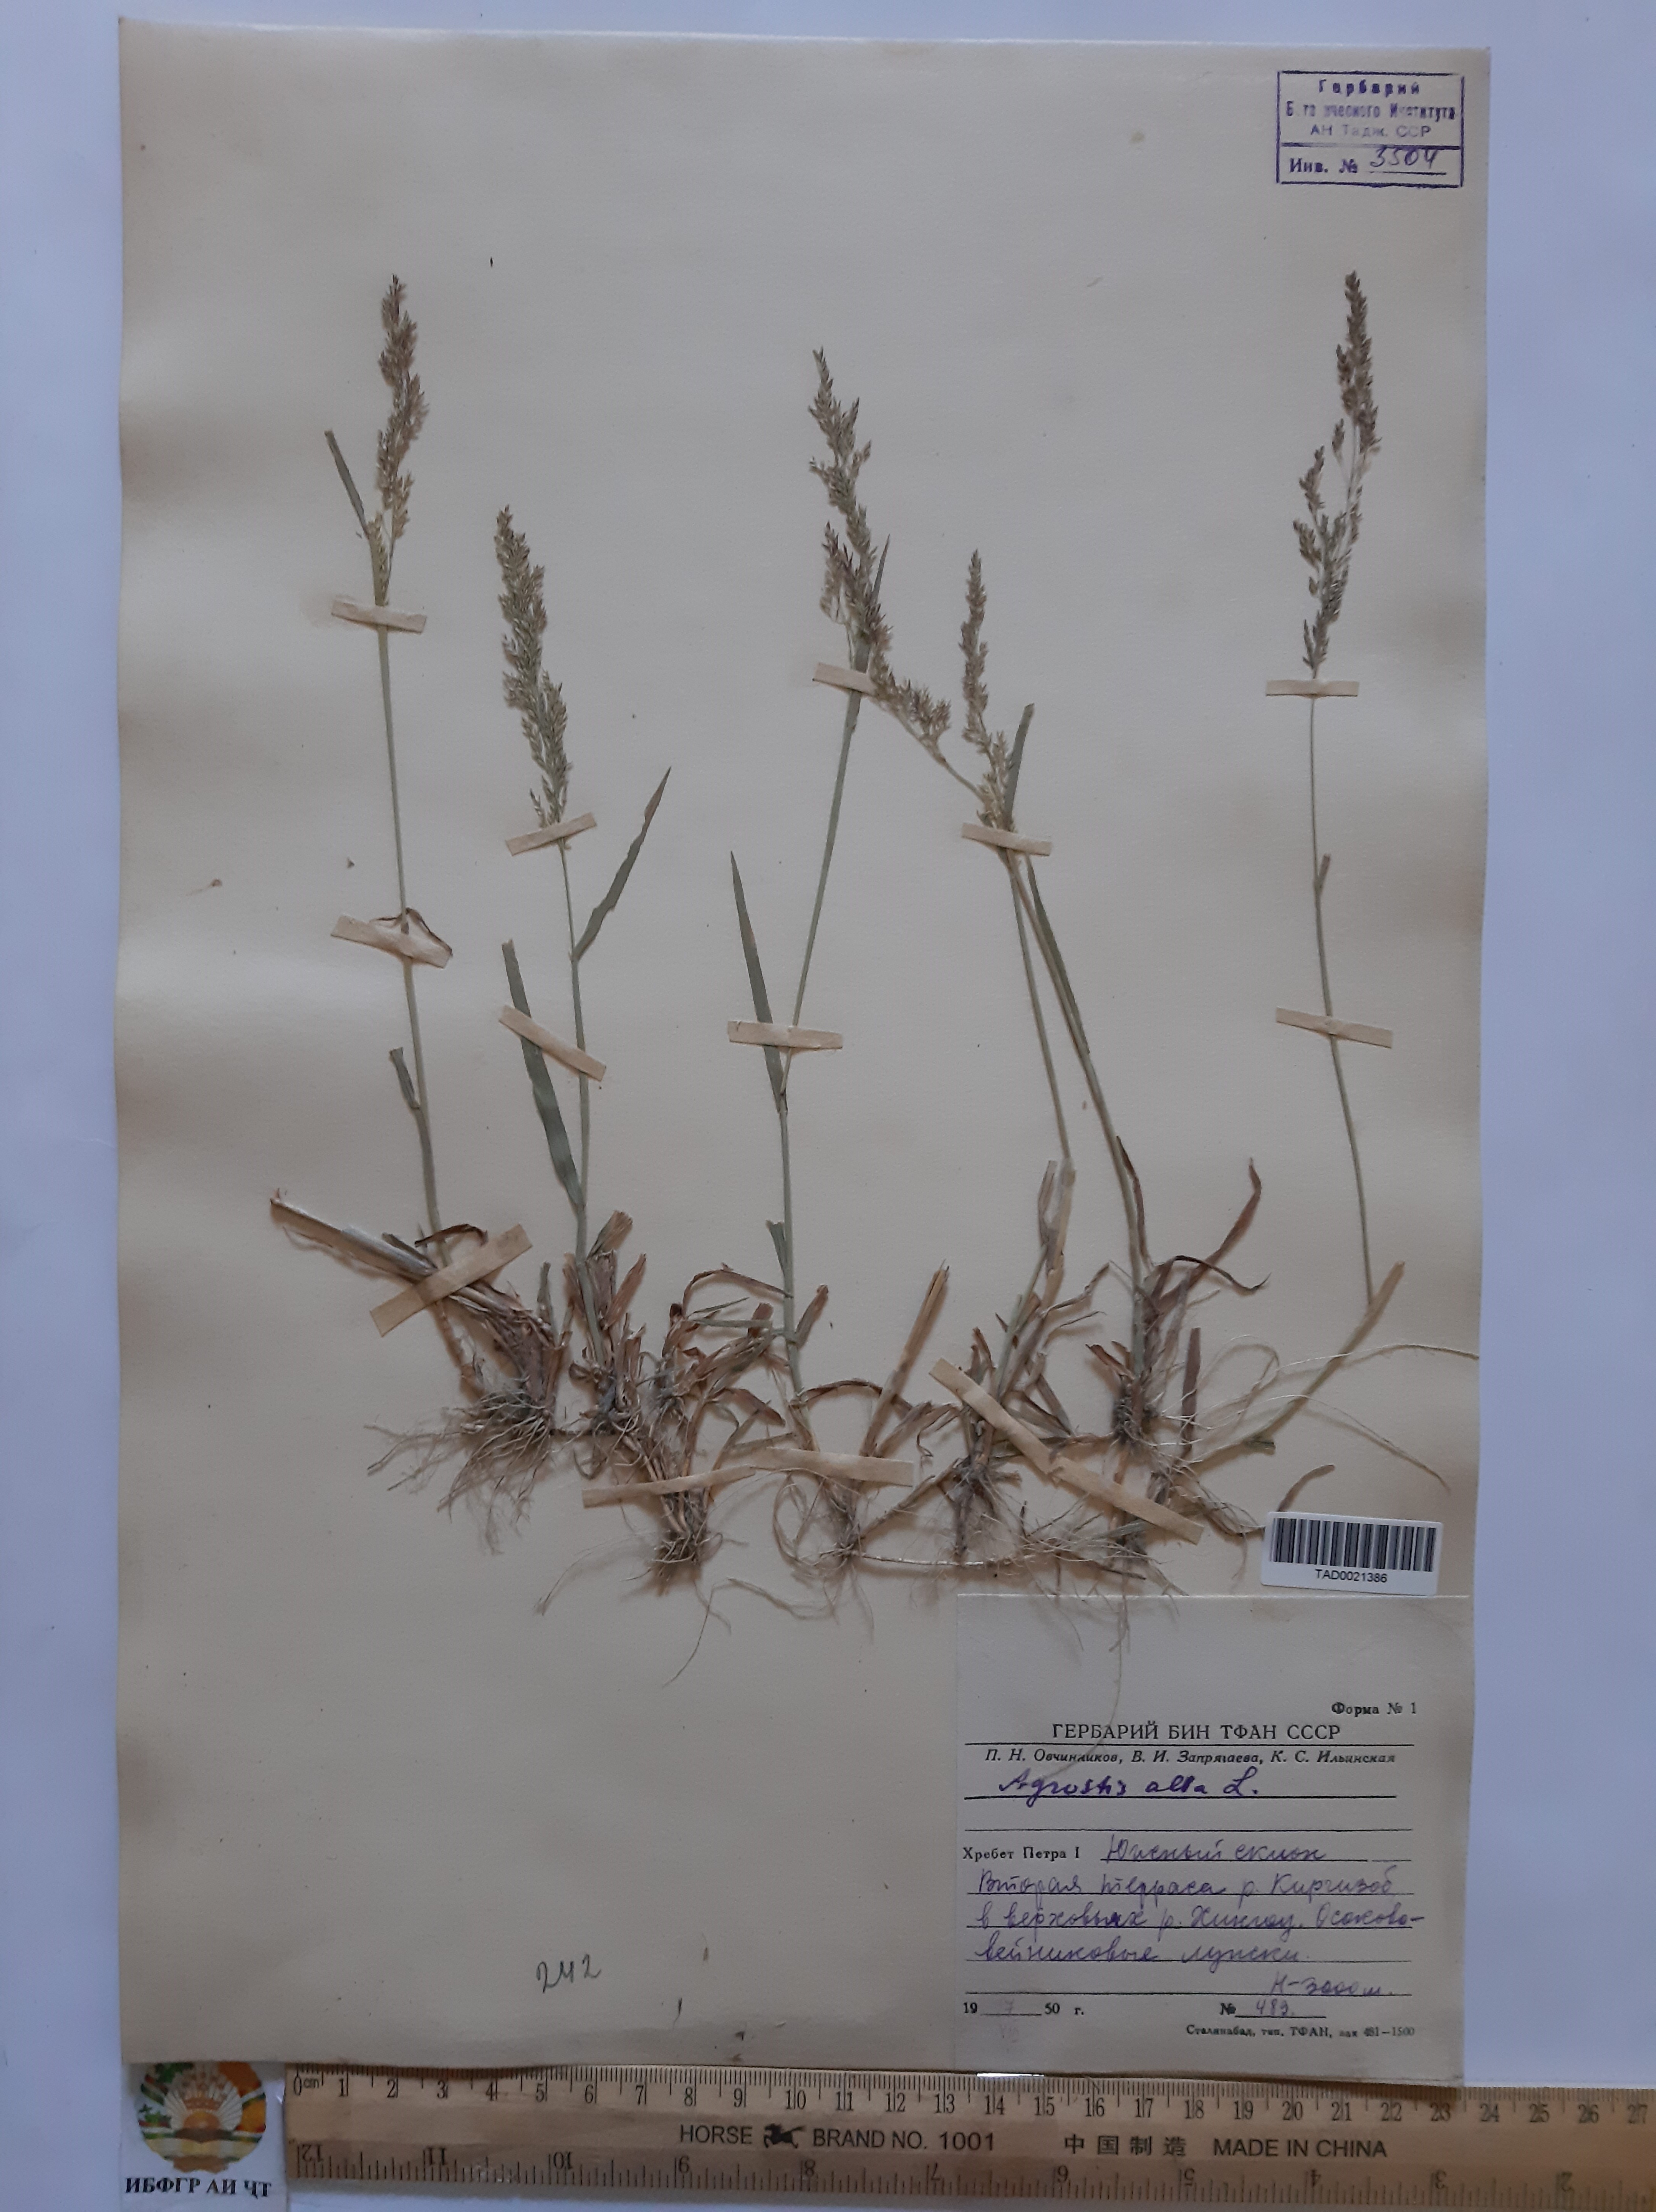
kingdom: Plantae
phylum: Tracheophyta
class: Liliopsida
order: Poales
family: Poaceae
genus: Poa
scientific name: Poa nemoralis
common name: Wood bluegrass
